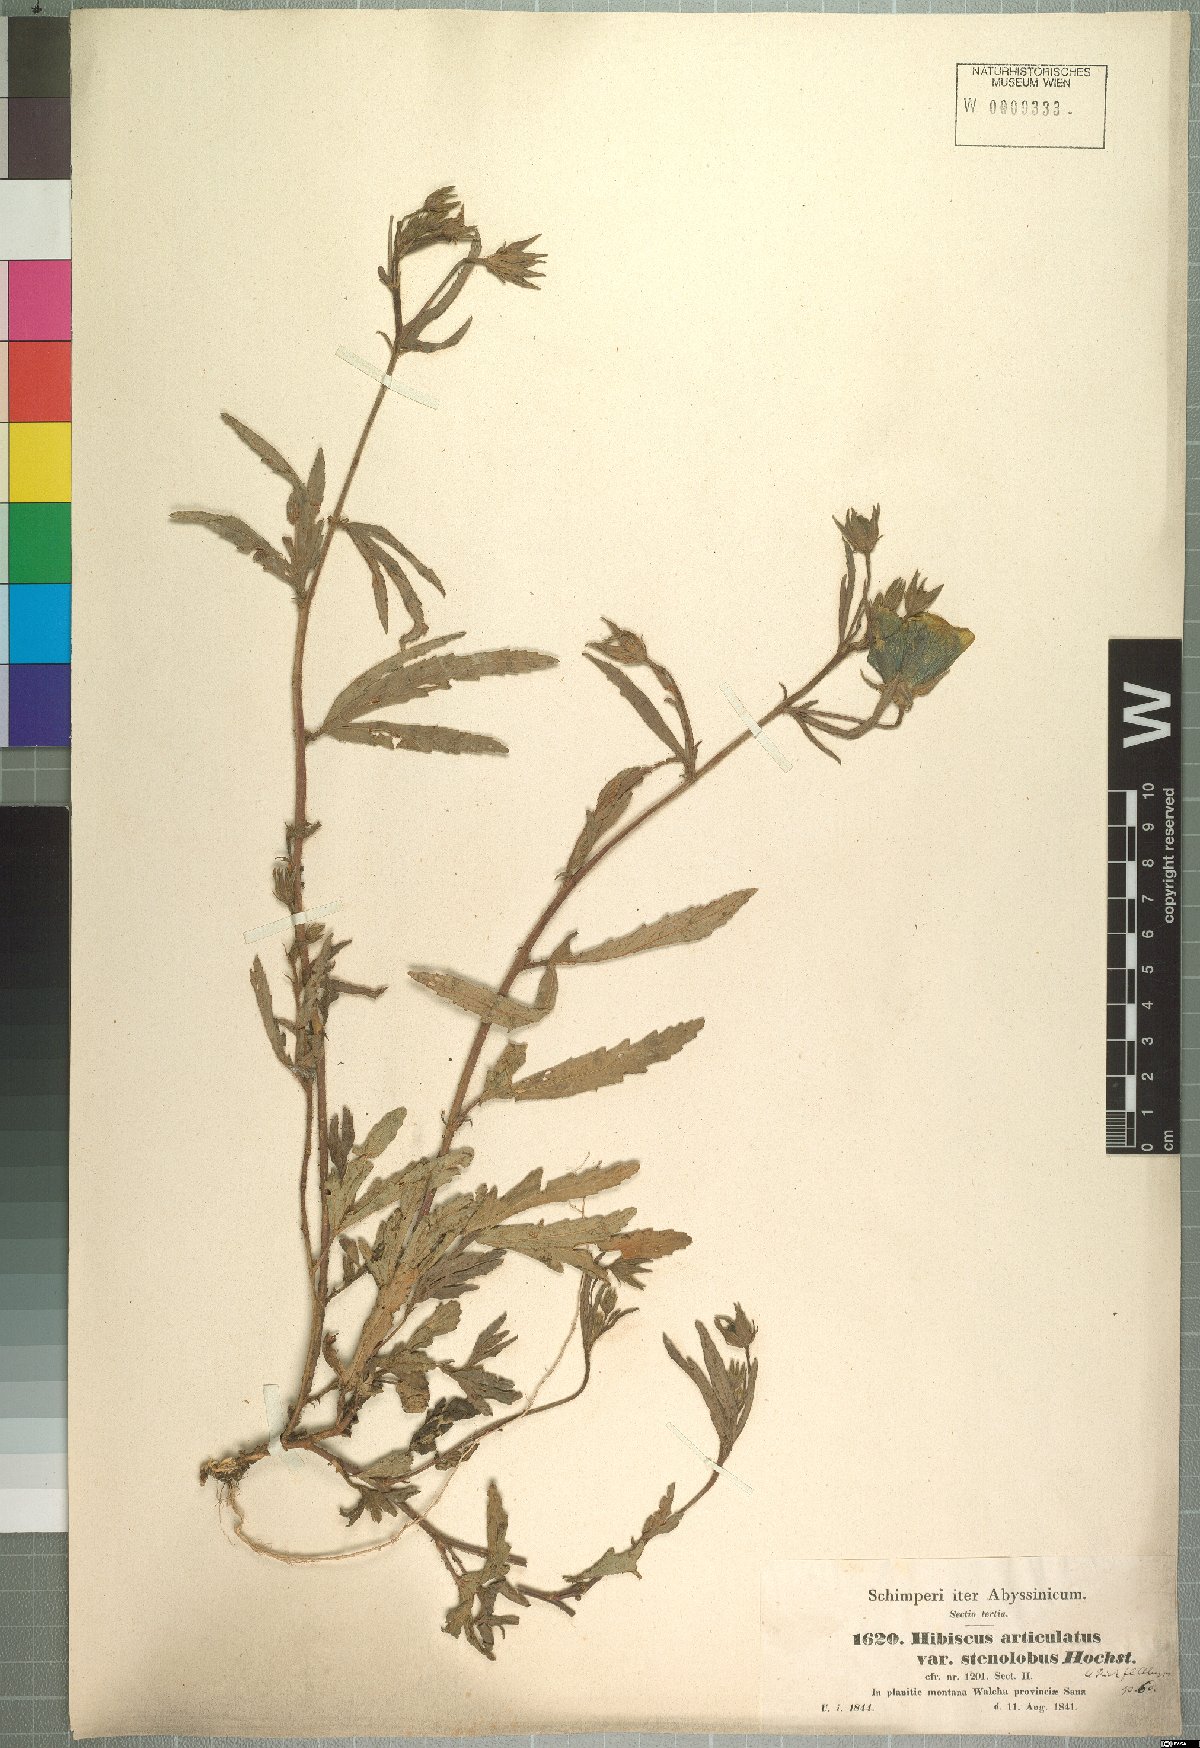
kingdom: Plantae
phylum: Tracheophyta
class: Magnoliopsida
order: Malvales
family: Malvaceae
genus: Hibiscus
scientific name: Hibiscus articulatus
